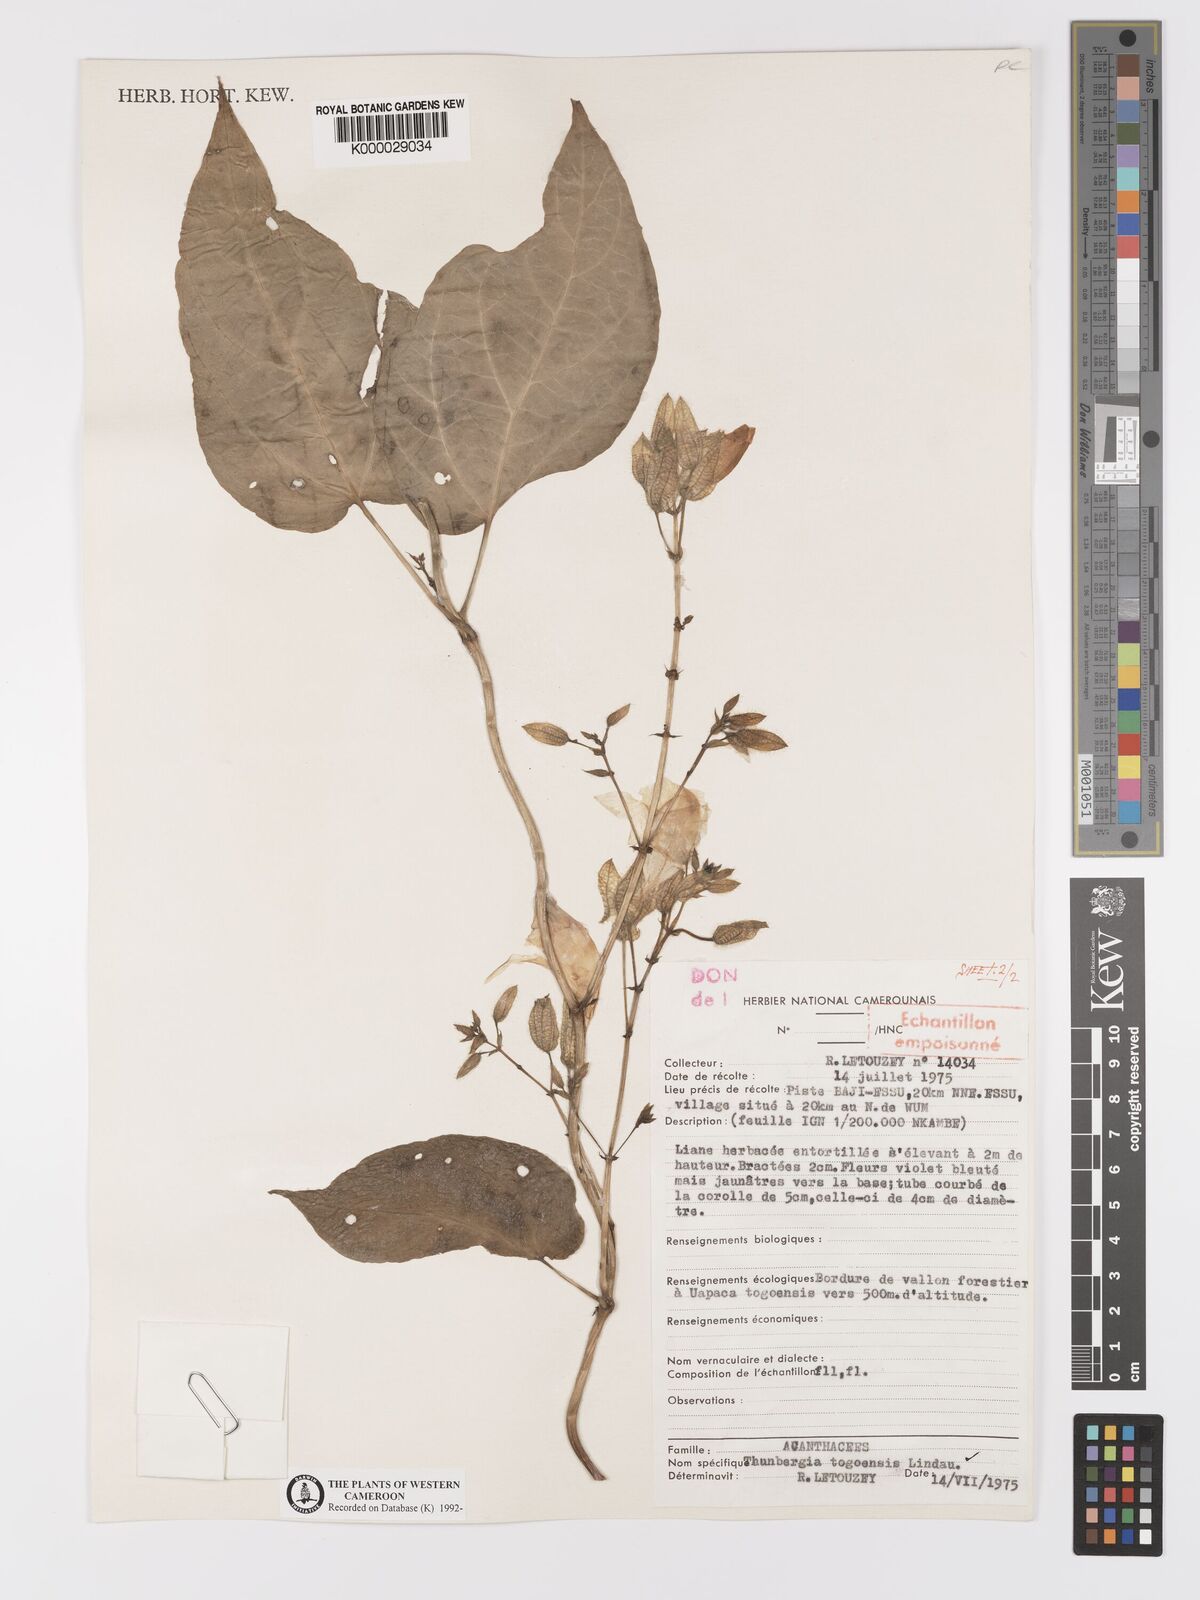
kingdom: Plantae
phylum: Tracheophyta
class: Magnoliopsida
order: Lamiales
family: Acanthaceae
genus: Thunbergia
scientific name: Thunbergia togoensis
